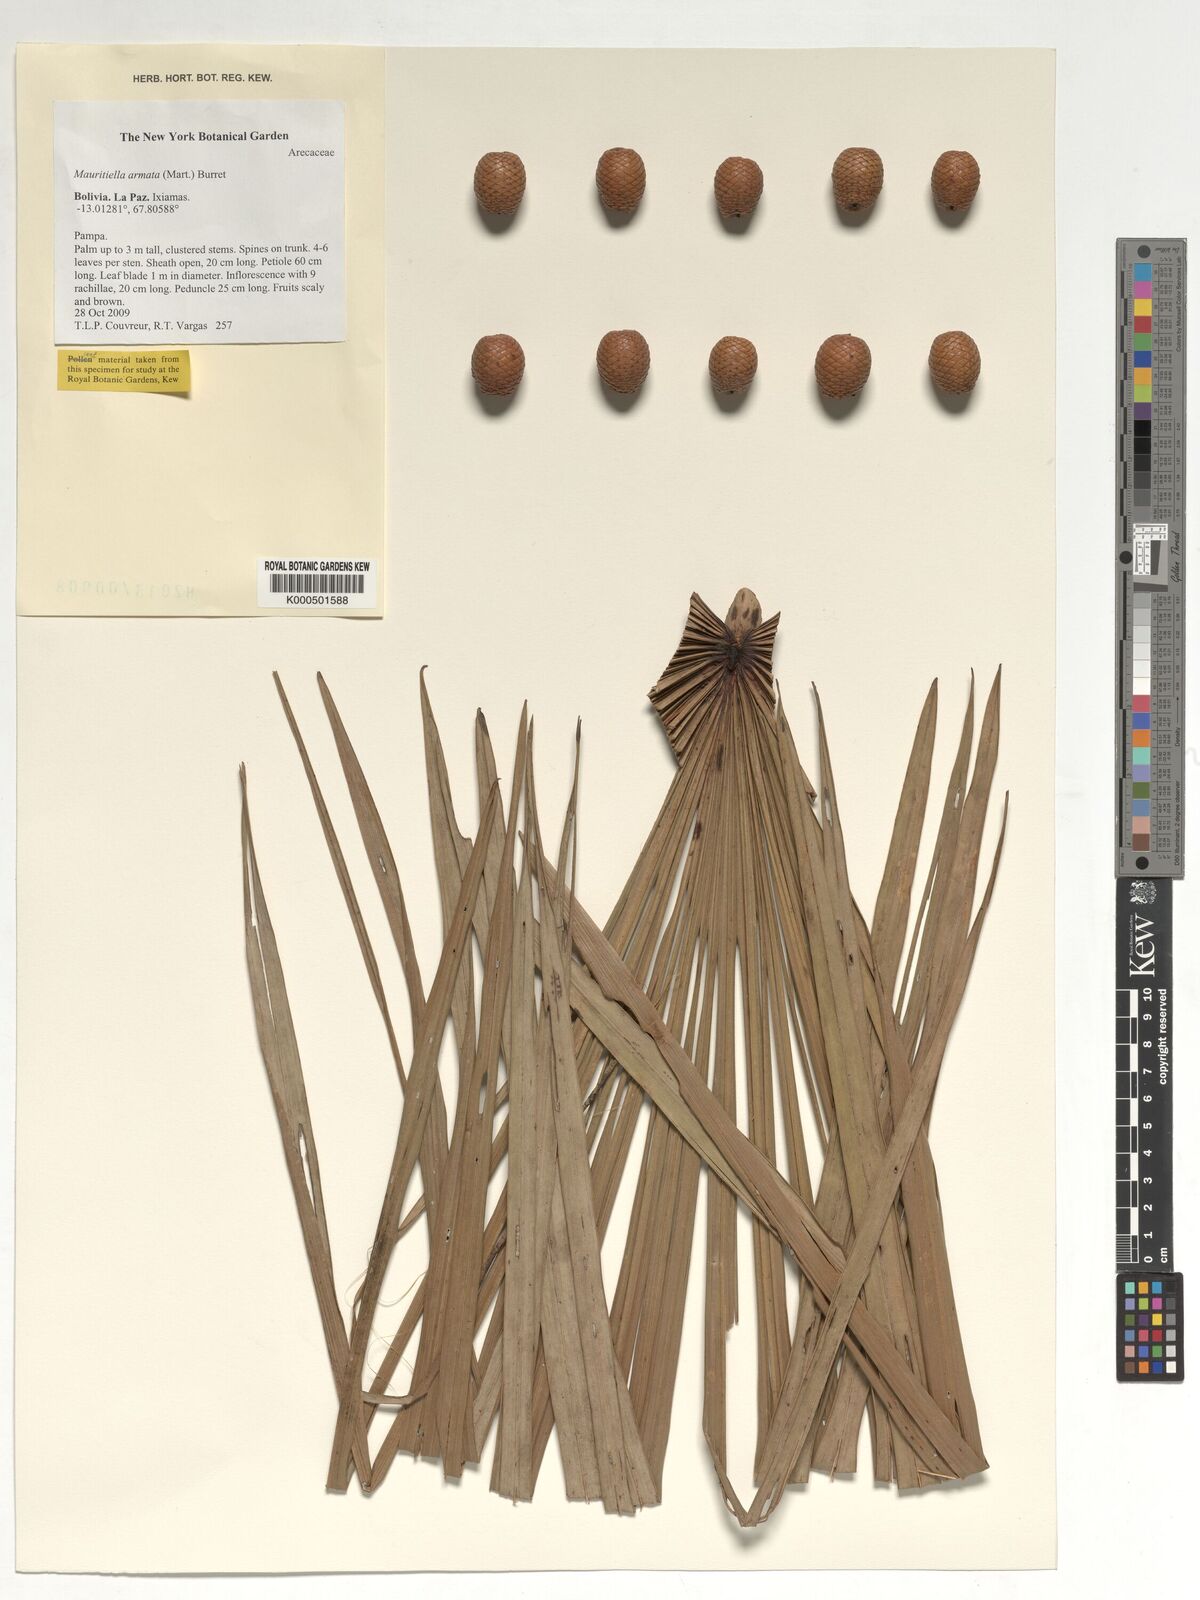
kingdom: Plantae
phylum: Tracheophyta
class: Liliopsida
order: Arecales
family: Arecaceae
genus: Mauritiella
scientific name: Mauritiella armata
